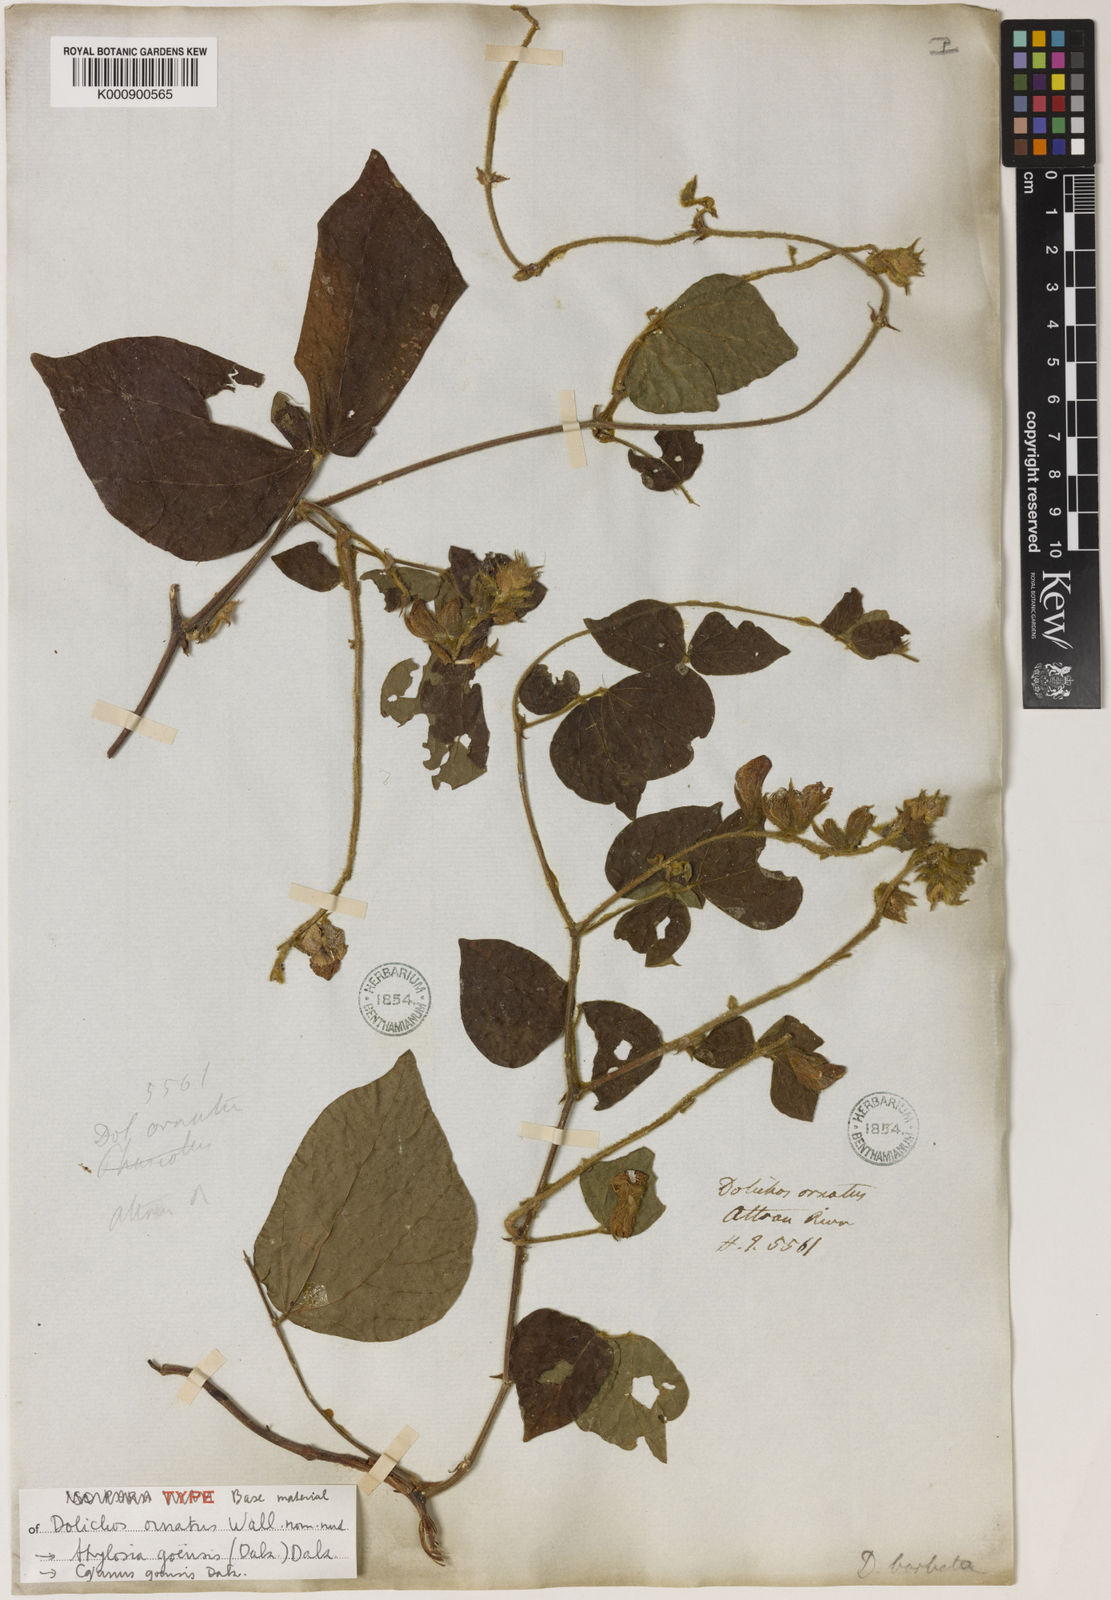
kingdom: Plantae
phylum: Tracheophyta
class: Magnoliopsida
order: Fabales
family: Fabaceae
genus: Cajanus
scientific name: Cajanus goensis
